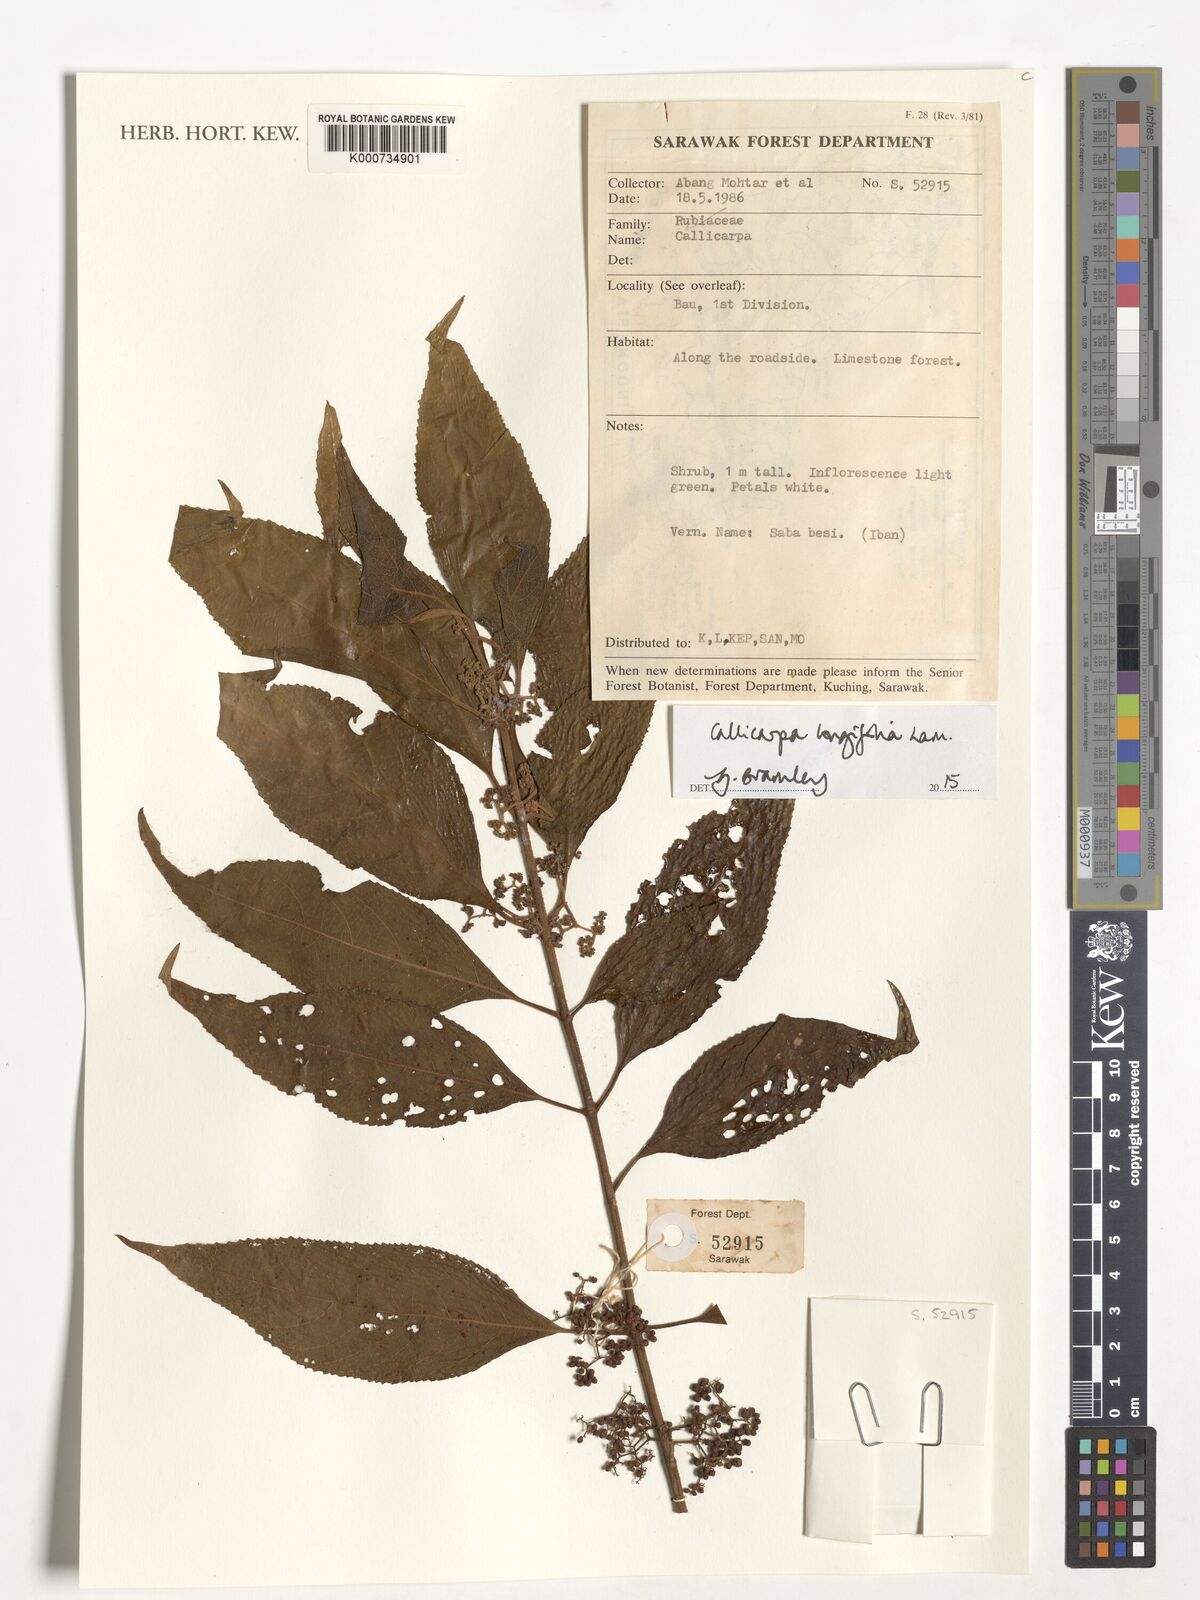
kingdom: Plantae
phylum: Tracheophyta
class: Magnoliopsida
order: Lamiales
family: Lamiaceae
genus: Callicarpa
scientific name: Callicarpa longifolia
